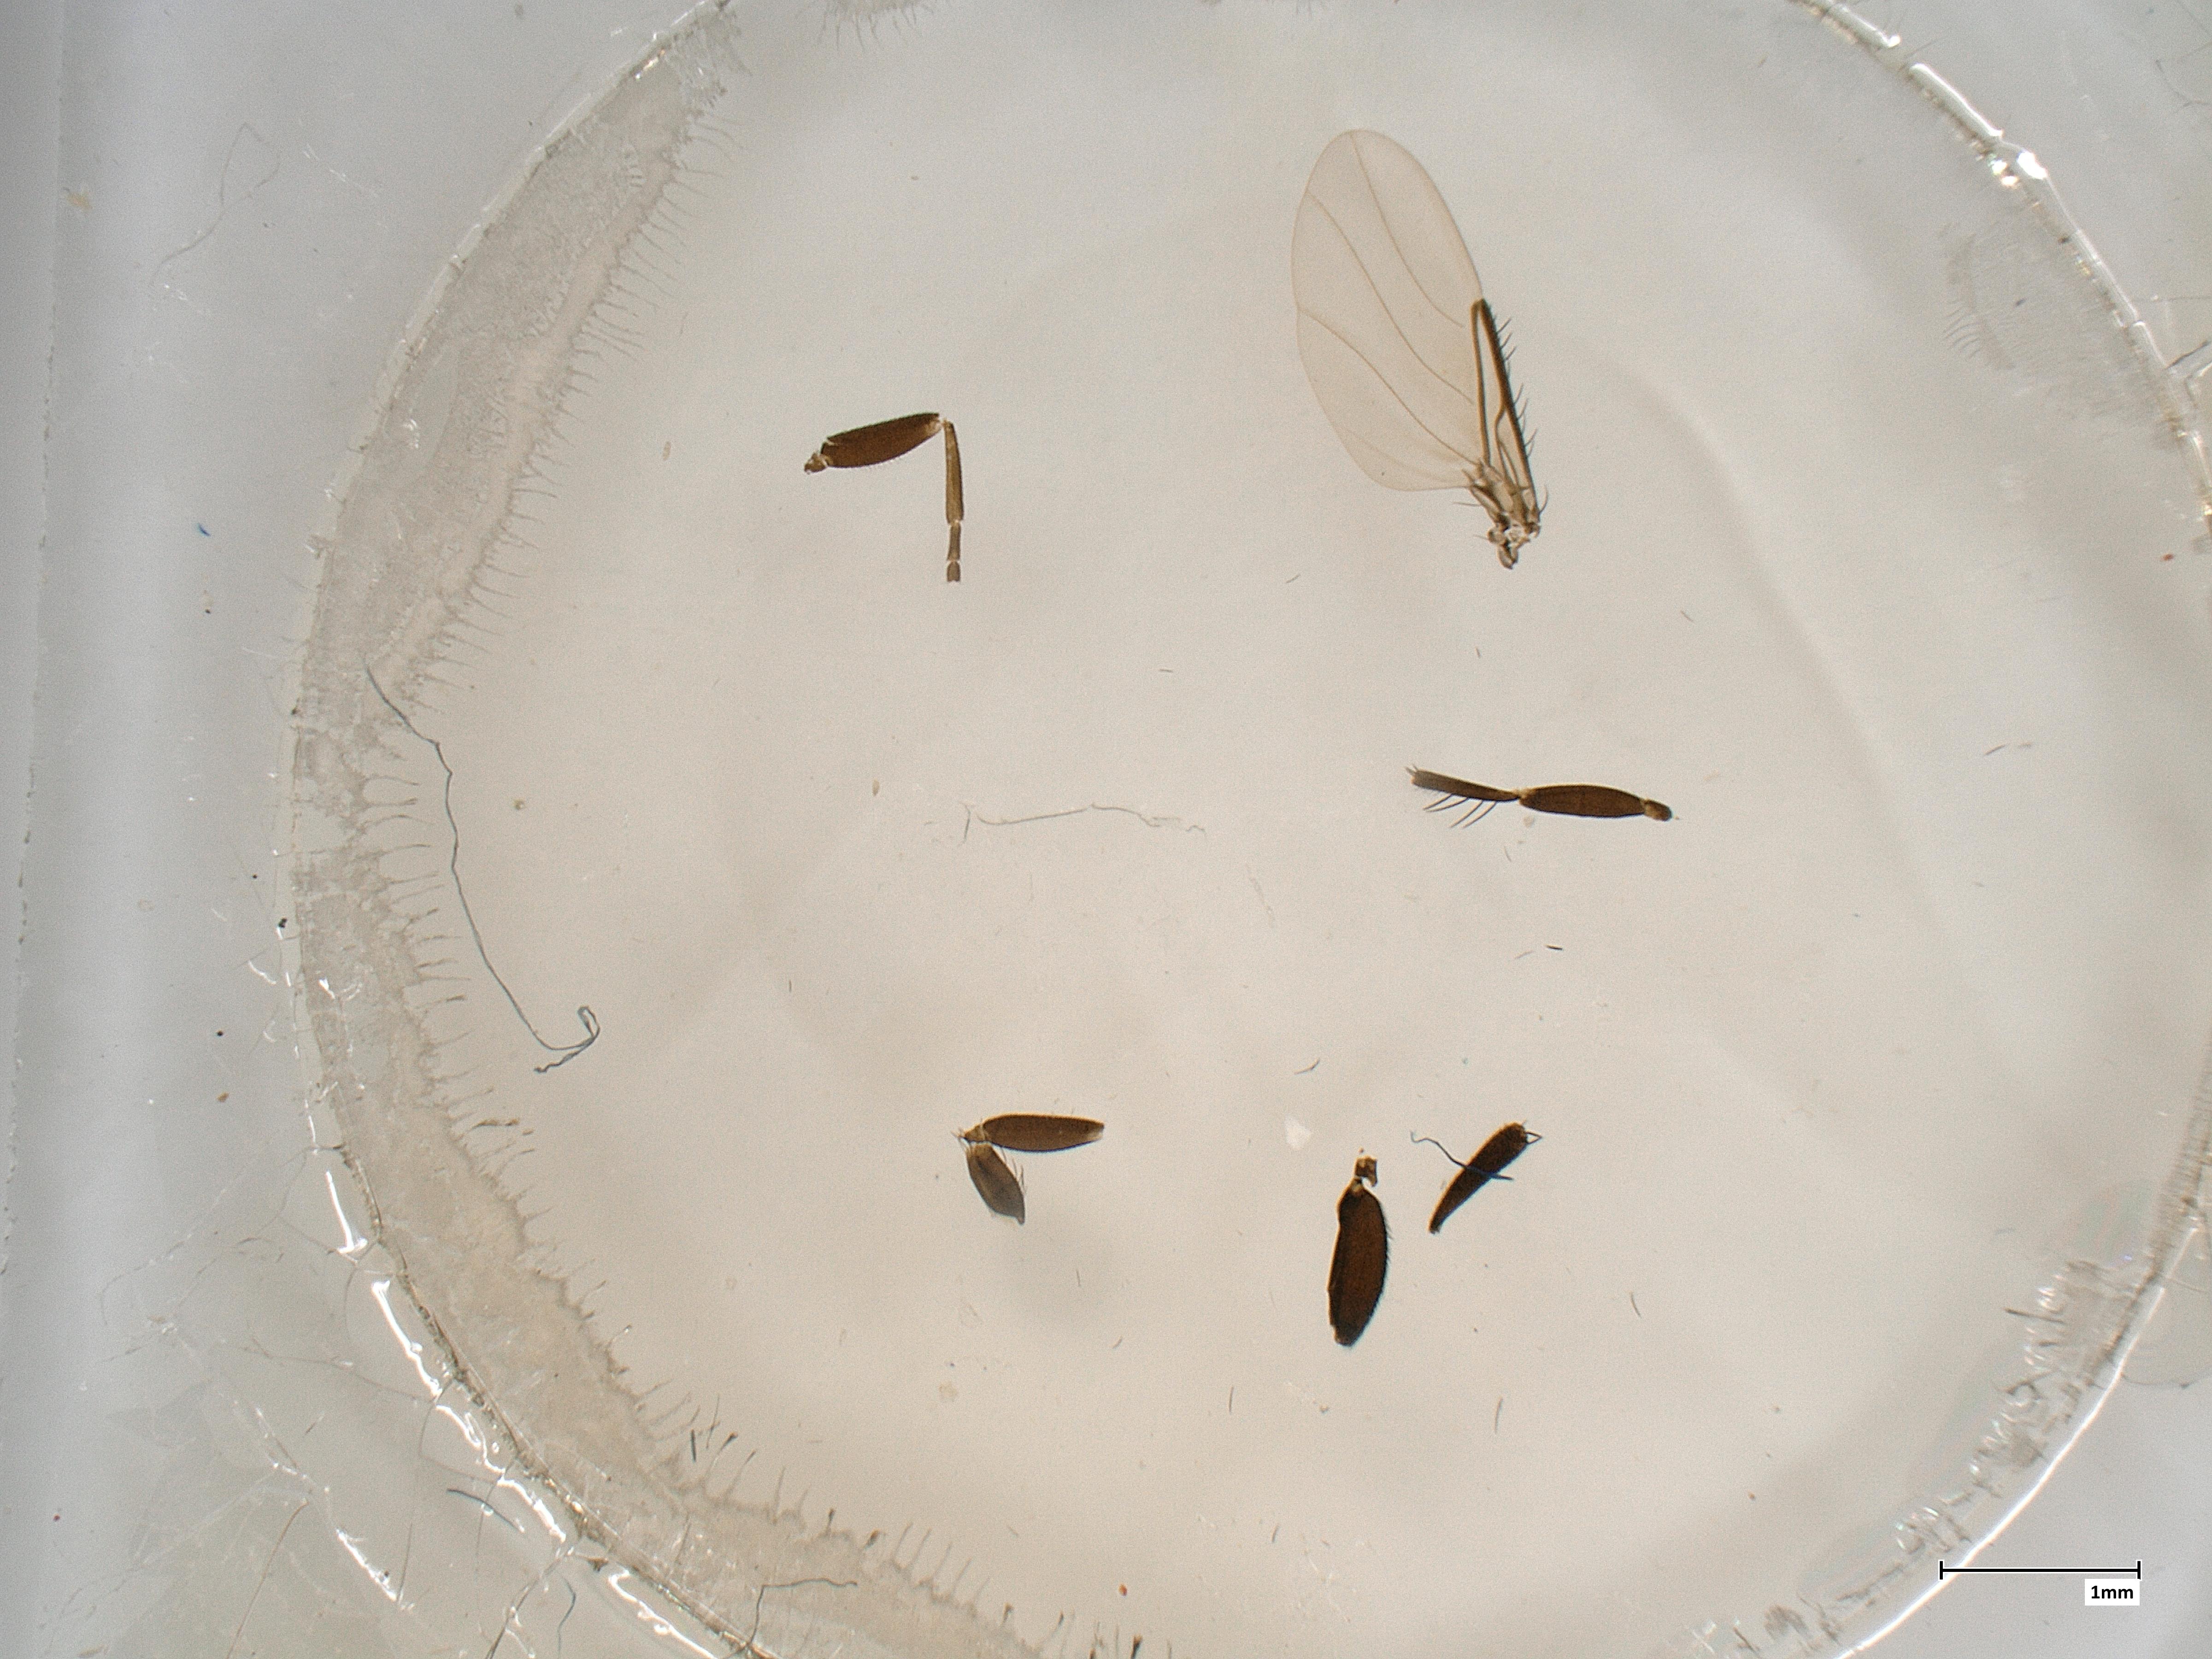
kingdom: Animalia
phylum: Arthropoda
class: Insecta
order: Diptera
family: Phoridae
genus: Phora
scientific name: Phora tincta
